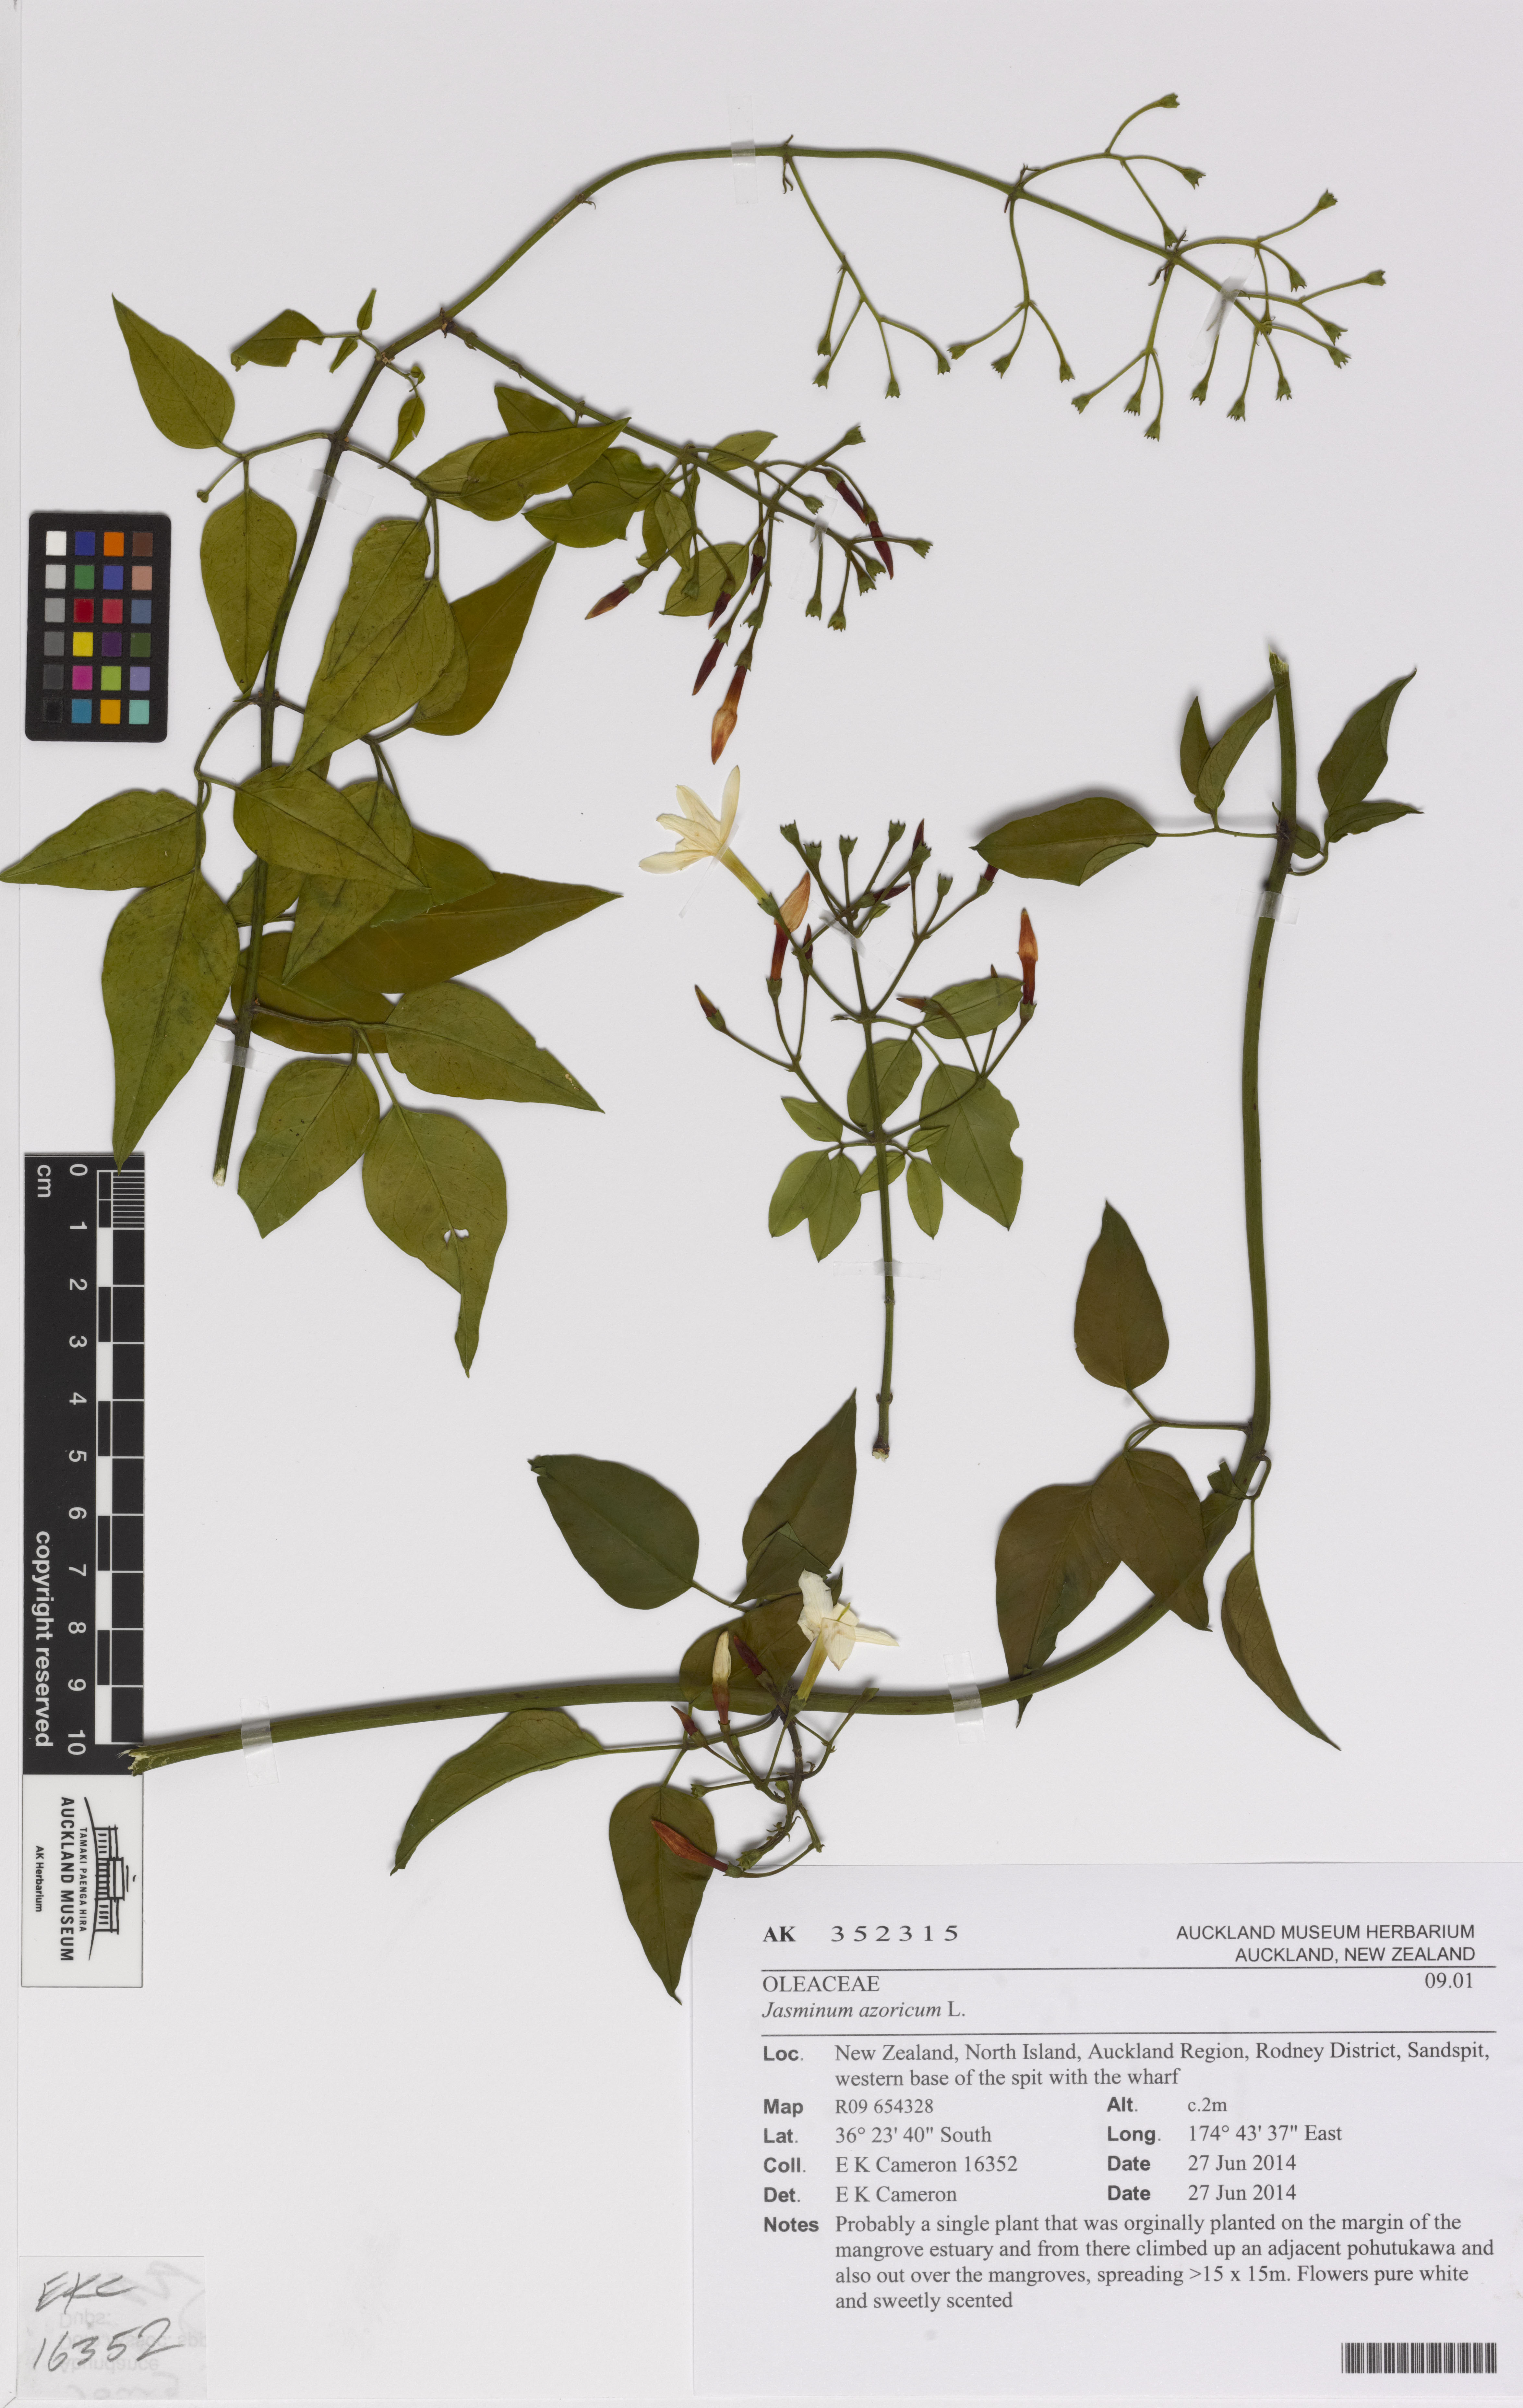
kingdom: Plantae
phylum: Tracheophyta
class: Magnoliopsida
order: Lamiales
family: Oleaceae
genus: Jasminum
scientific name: Jasminum azoricum
